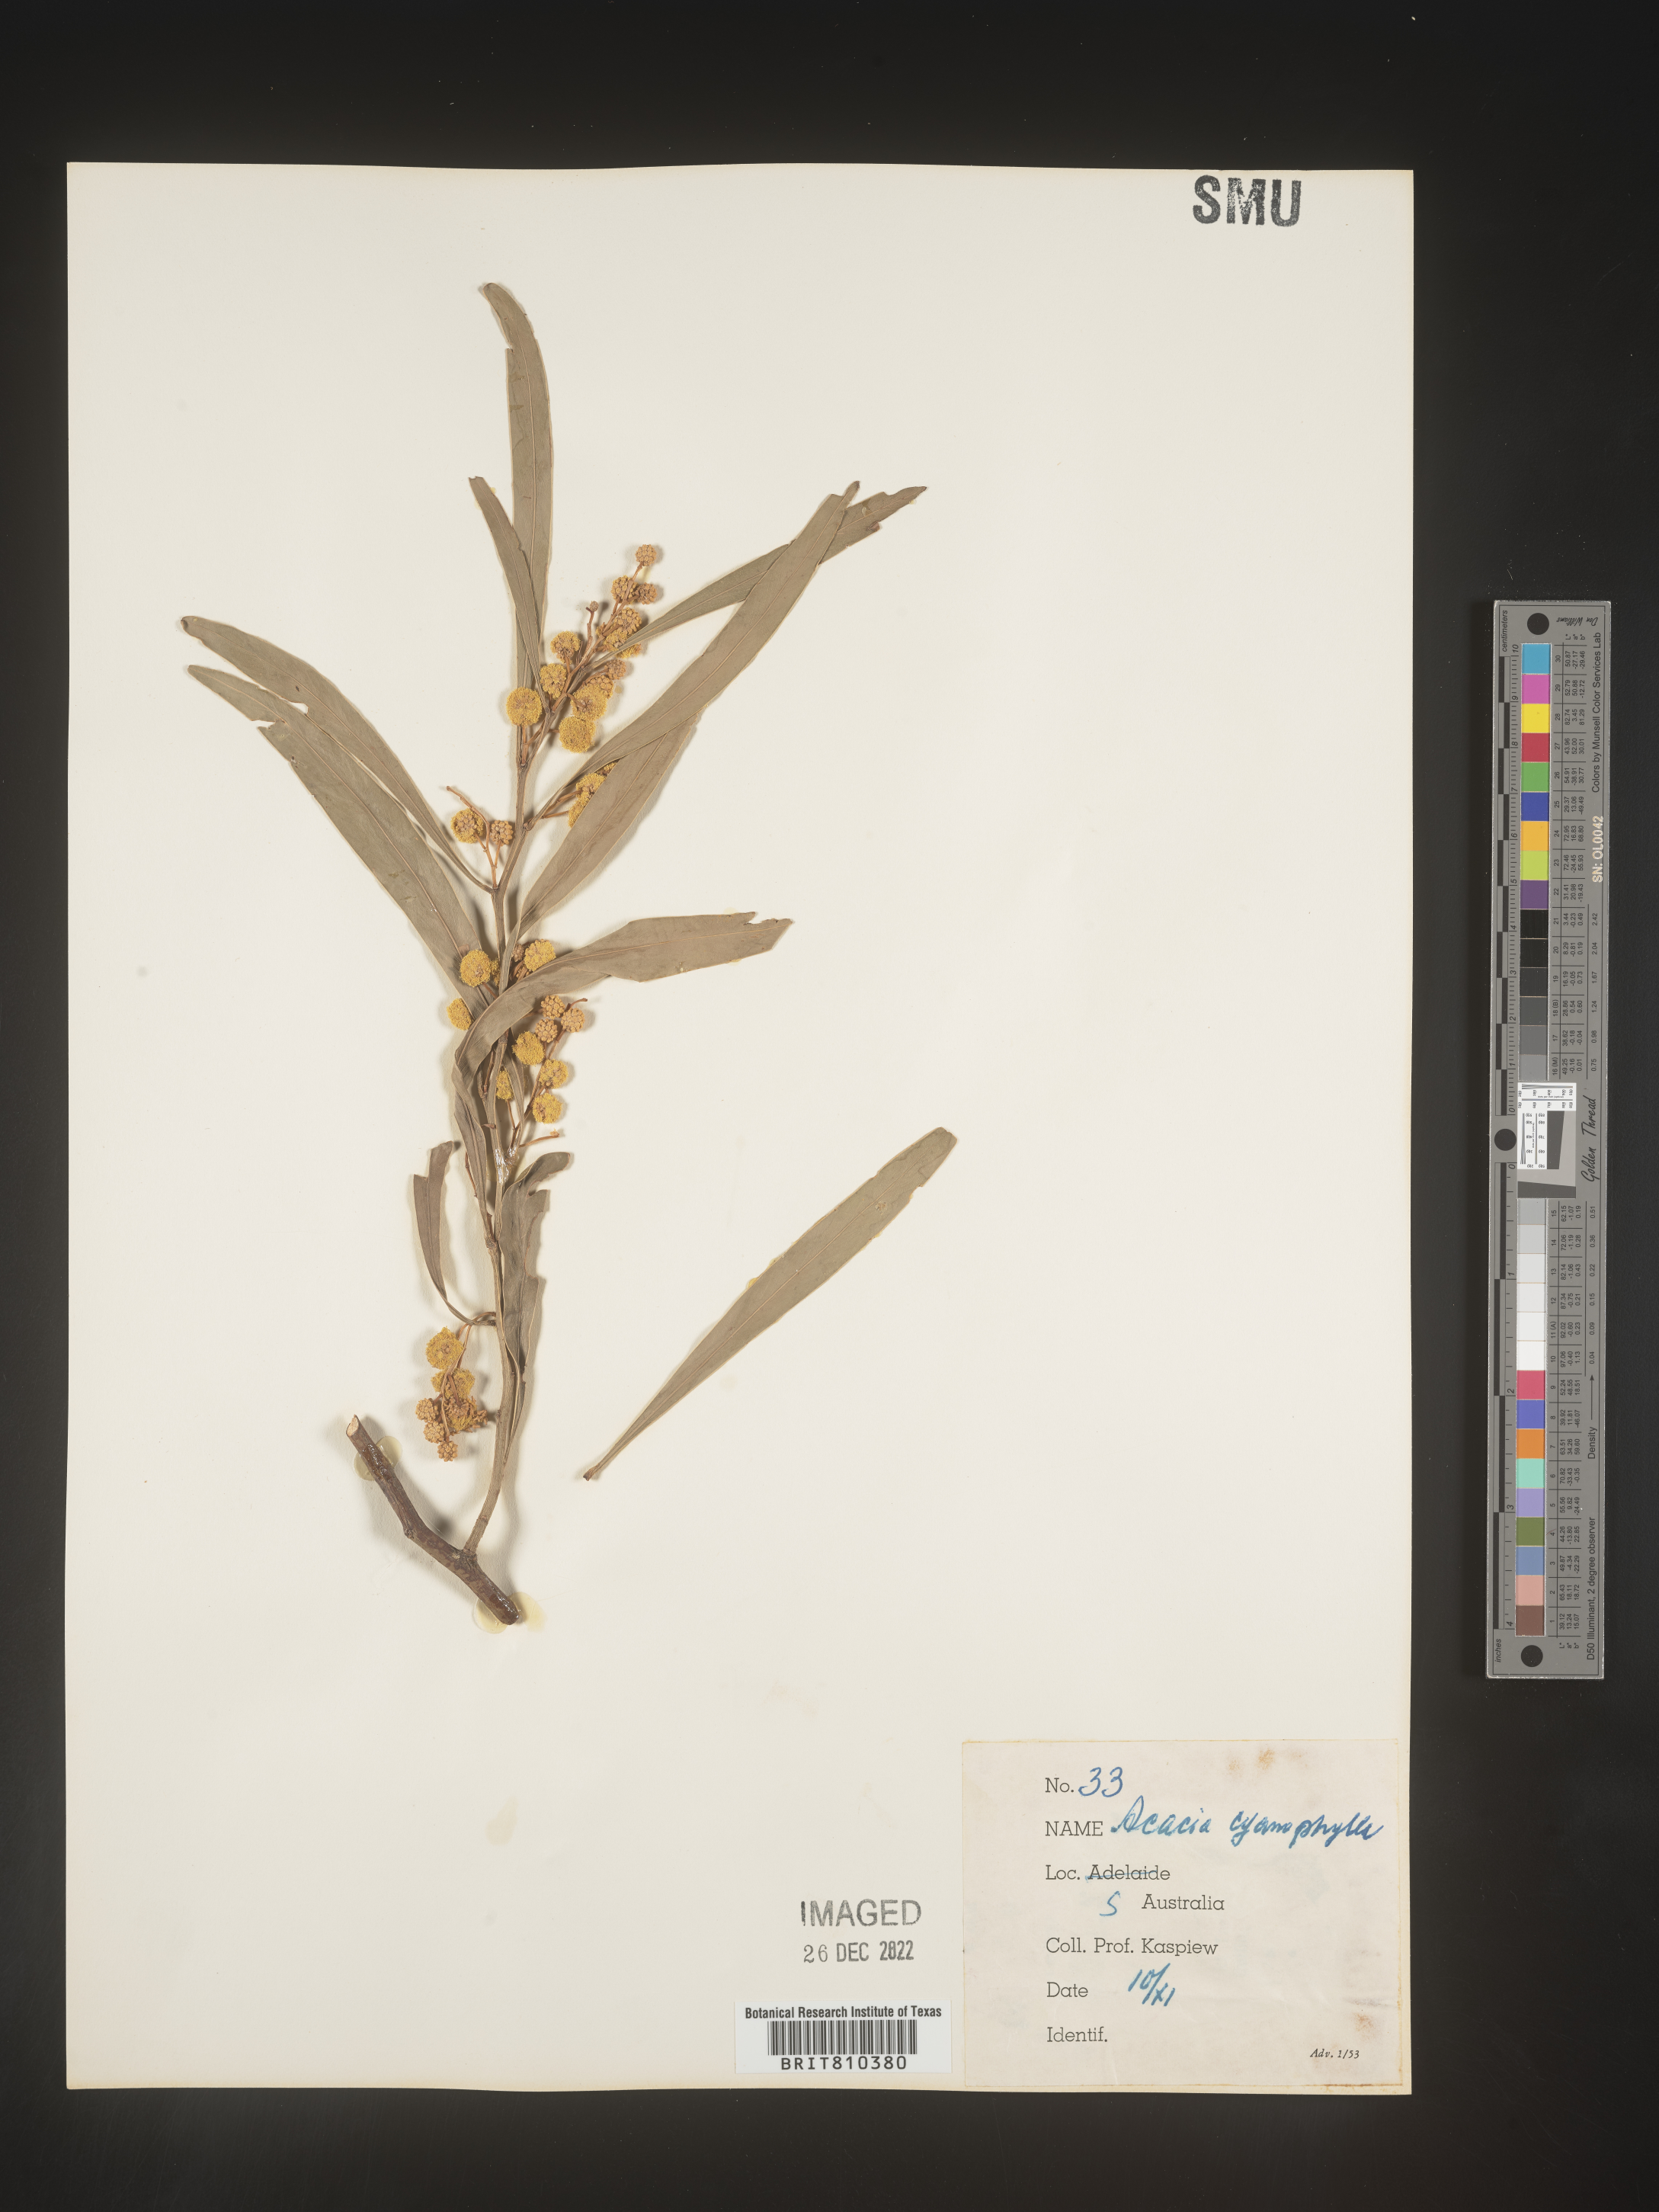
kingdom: Plantae
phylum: Tracheophyta
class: Magnoliopsida
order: Fabales
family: Fabaceae
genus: Acacia
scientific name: Acacia
